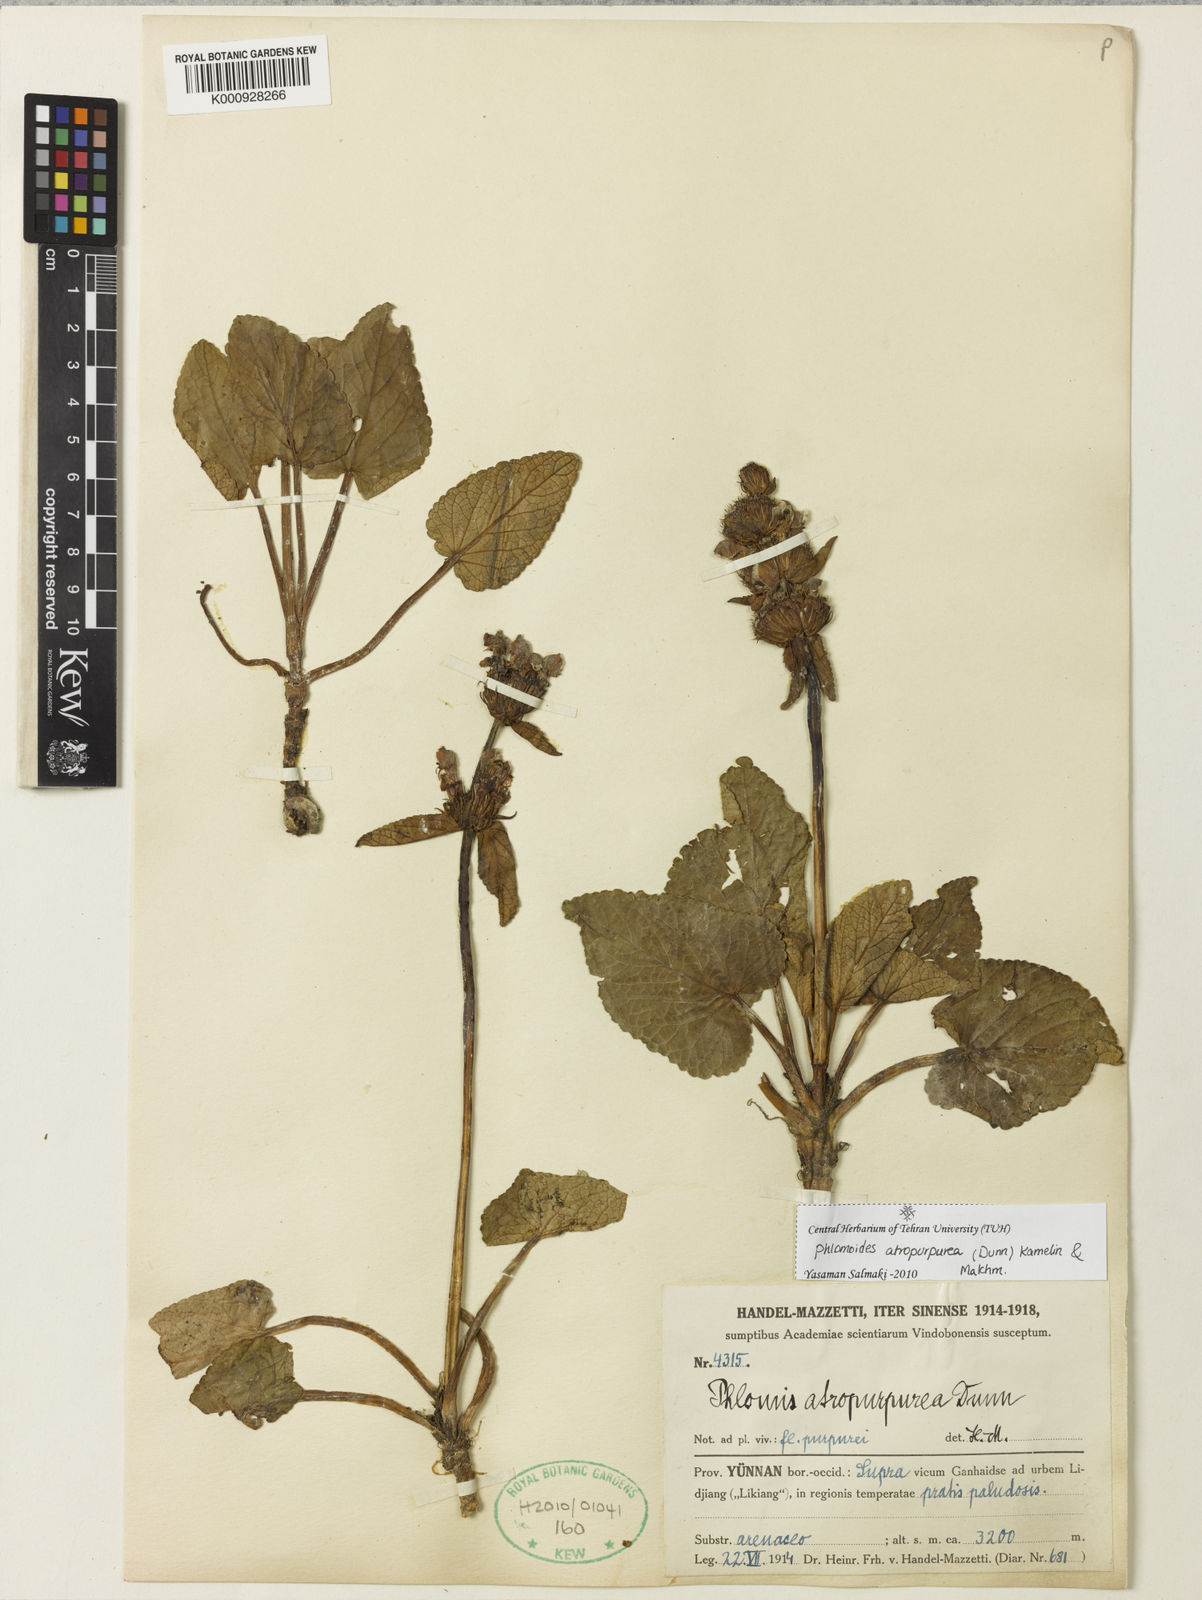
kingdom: Plantae
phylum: Tracheophyta
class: Magnoliopsida
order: Lamiales
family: Lamiaceae
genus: Phlomoides
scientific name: Phlomoides atropurpurea
